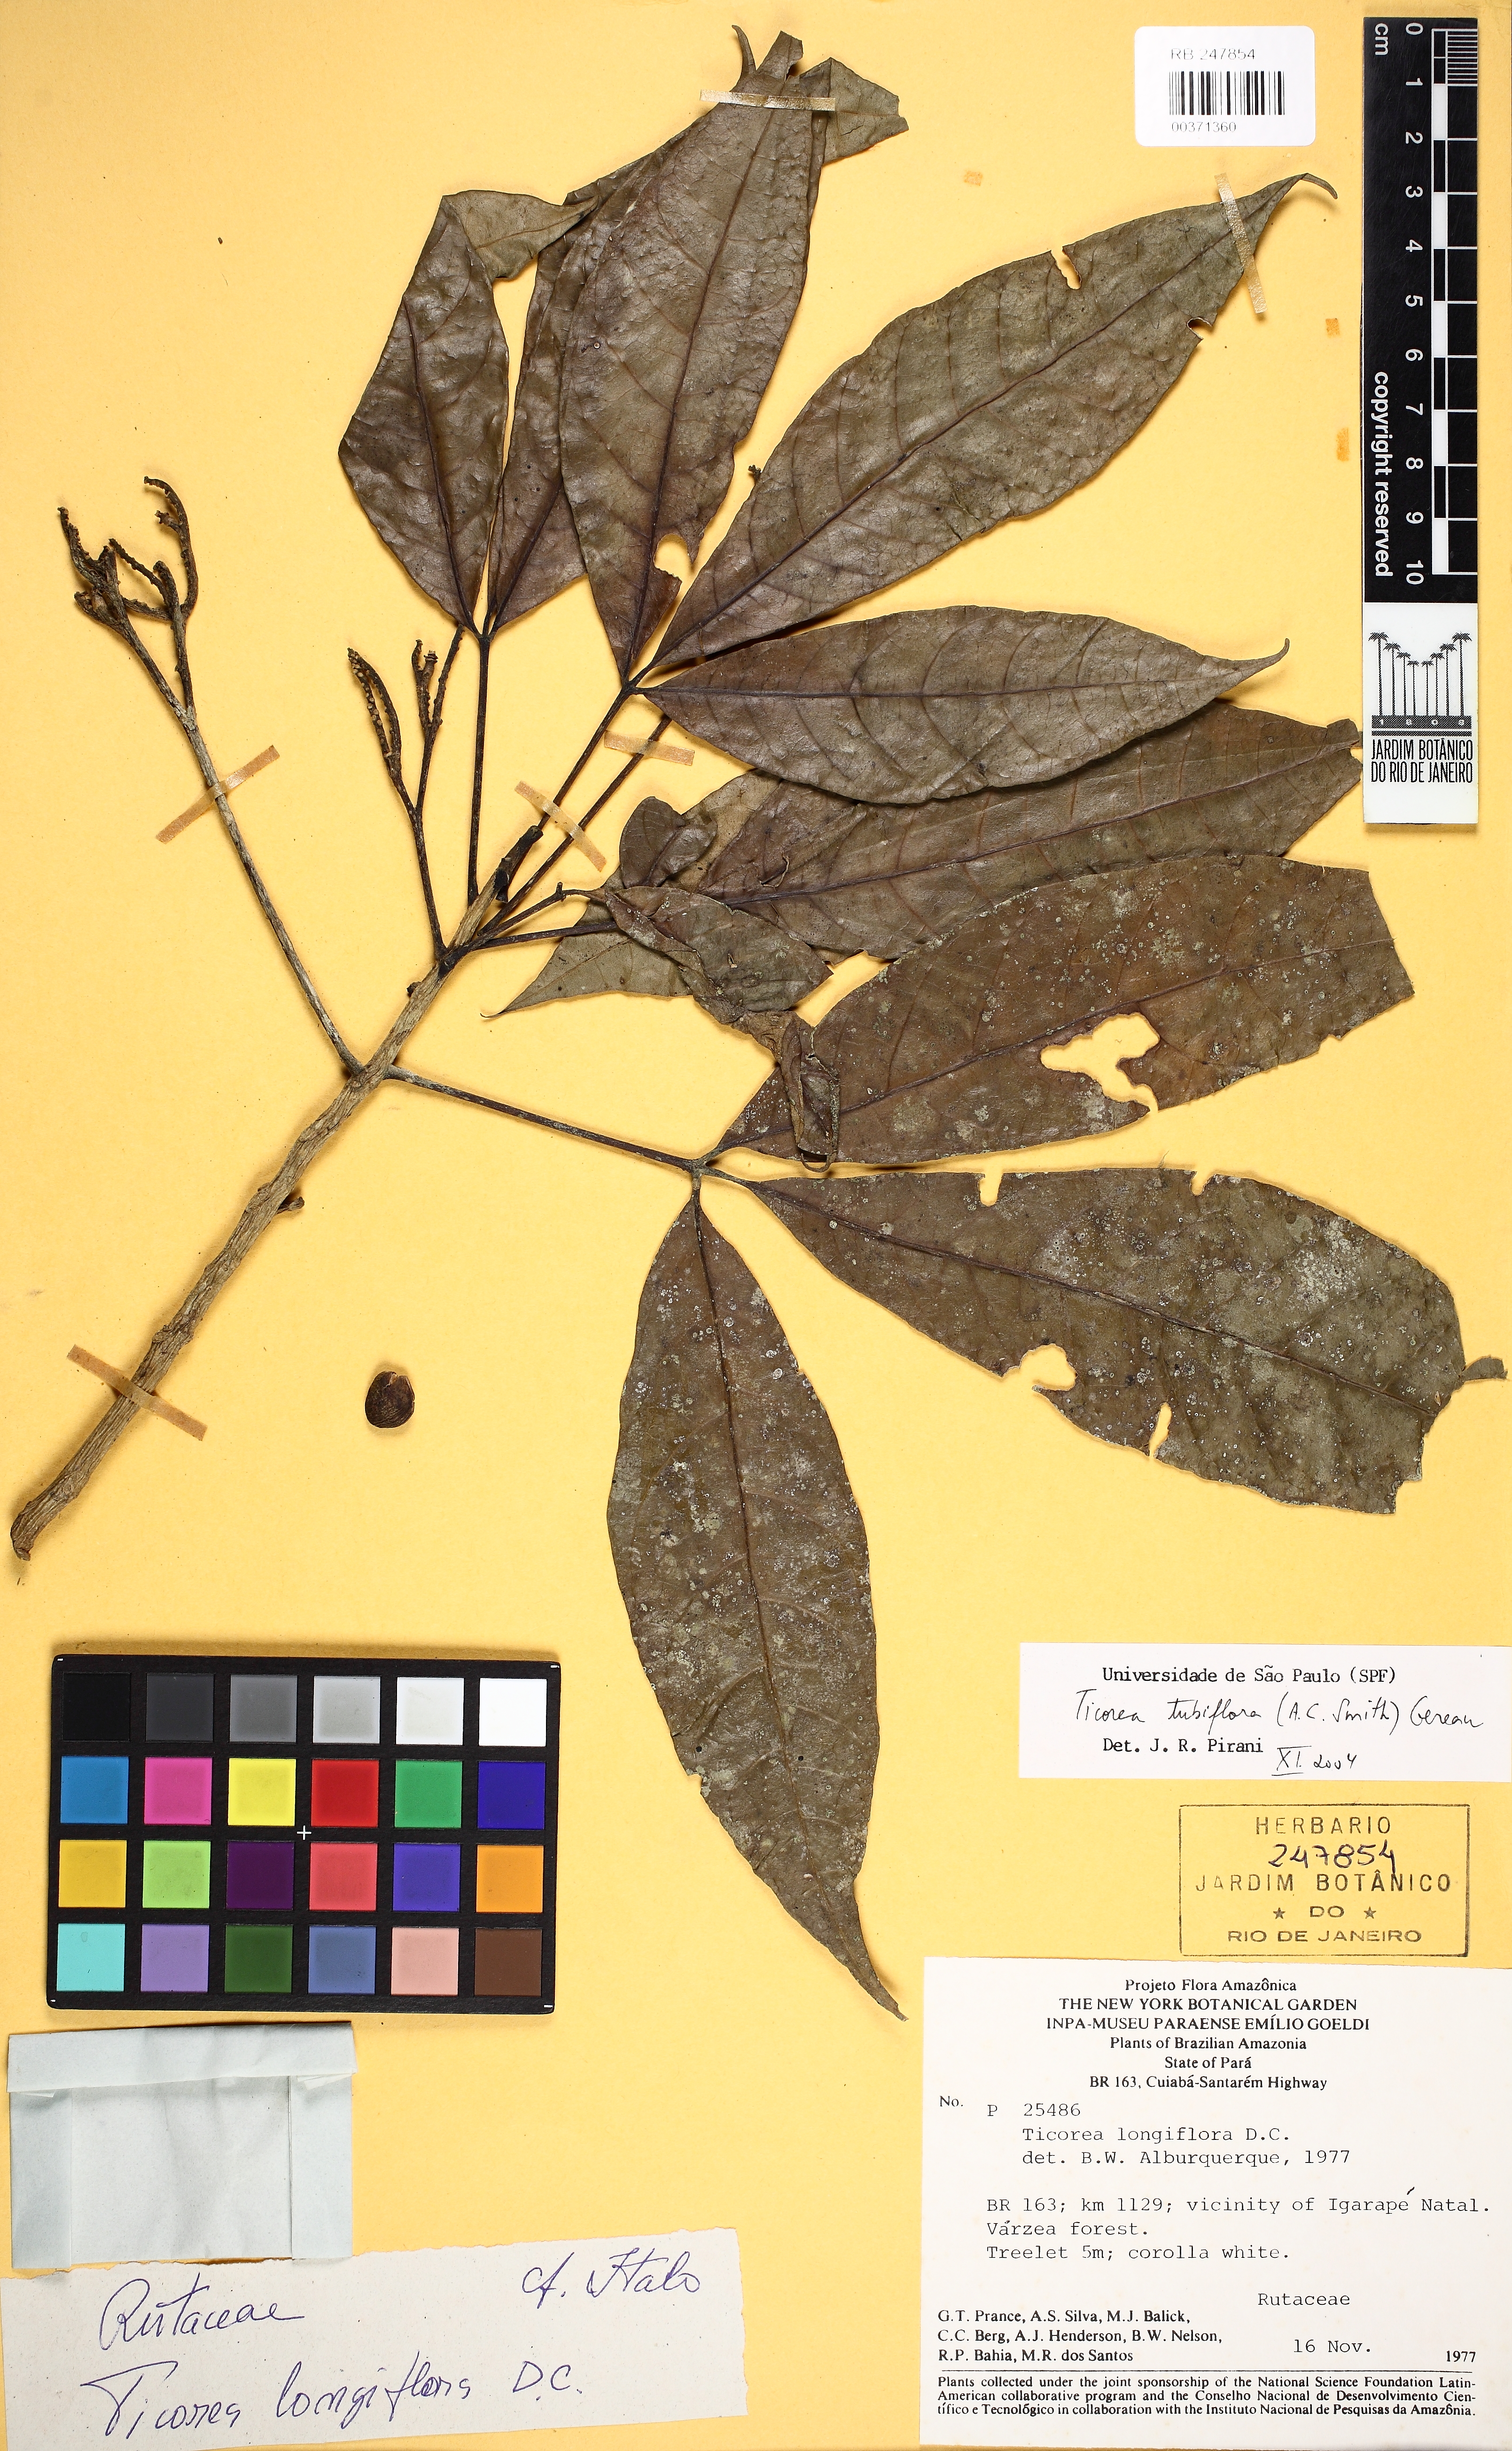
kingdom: Plantae
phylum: Tracheophyta
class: Magnoliopsida
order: Sapindales
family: Rutaceae
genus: Ticorea
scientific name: Ticorea tubiflora
